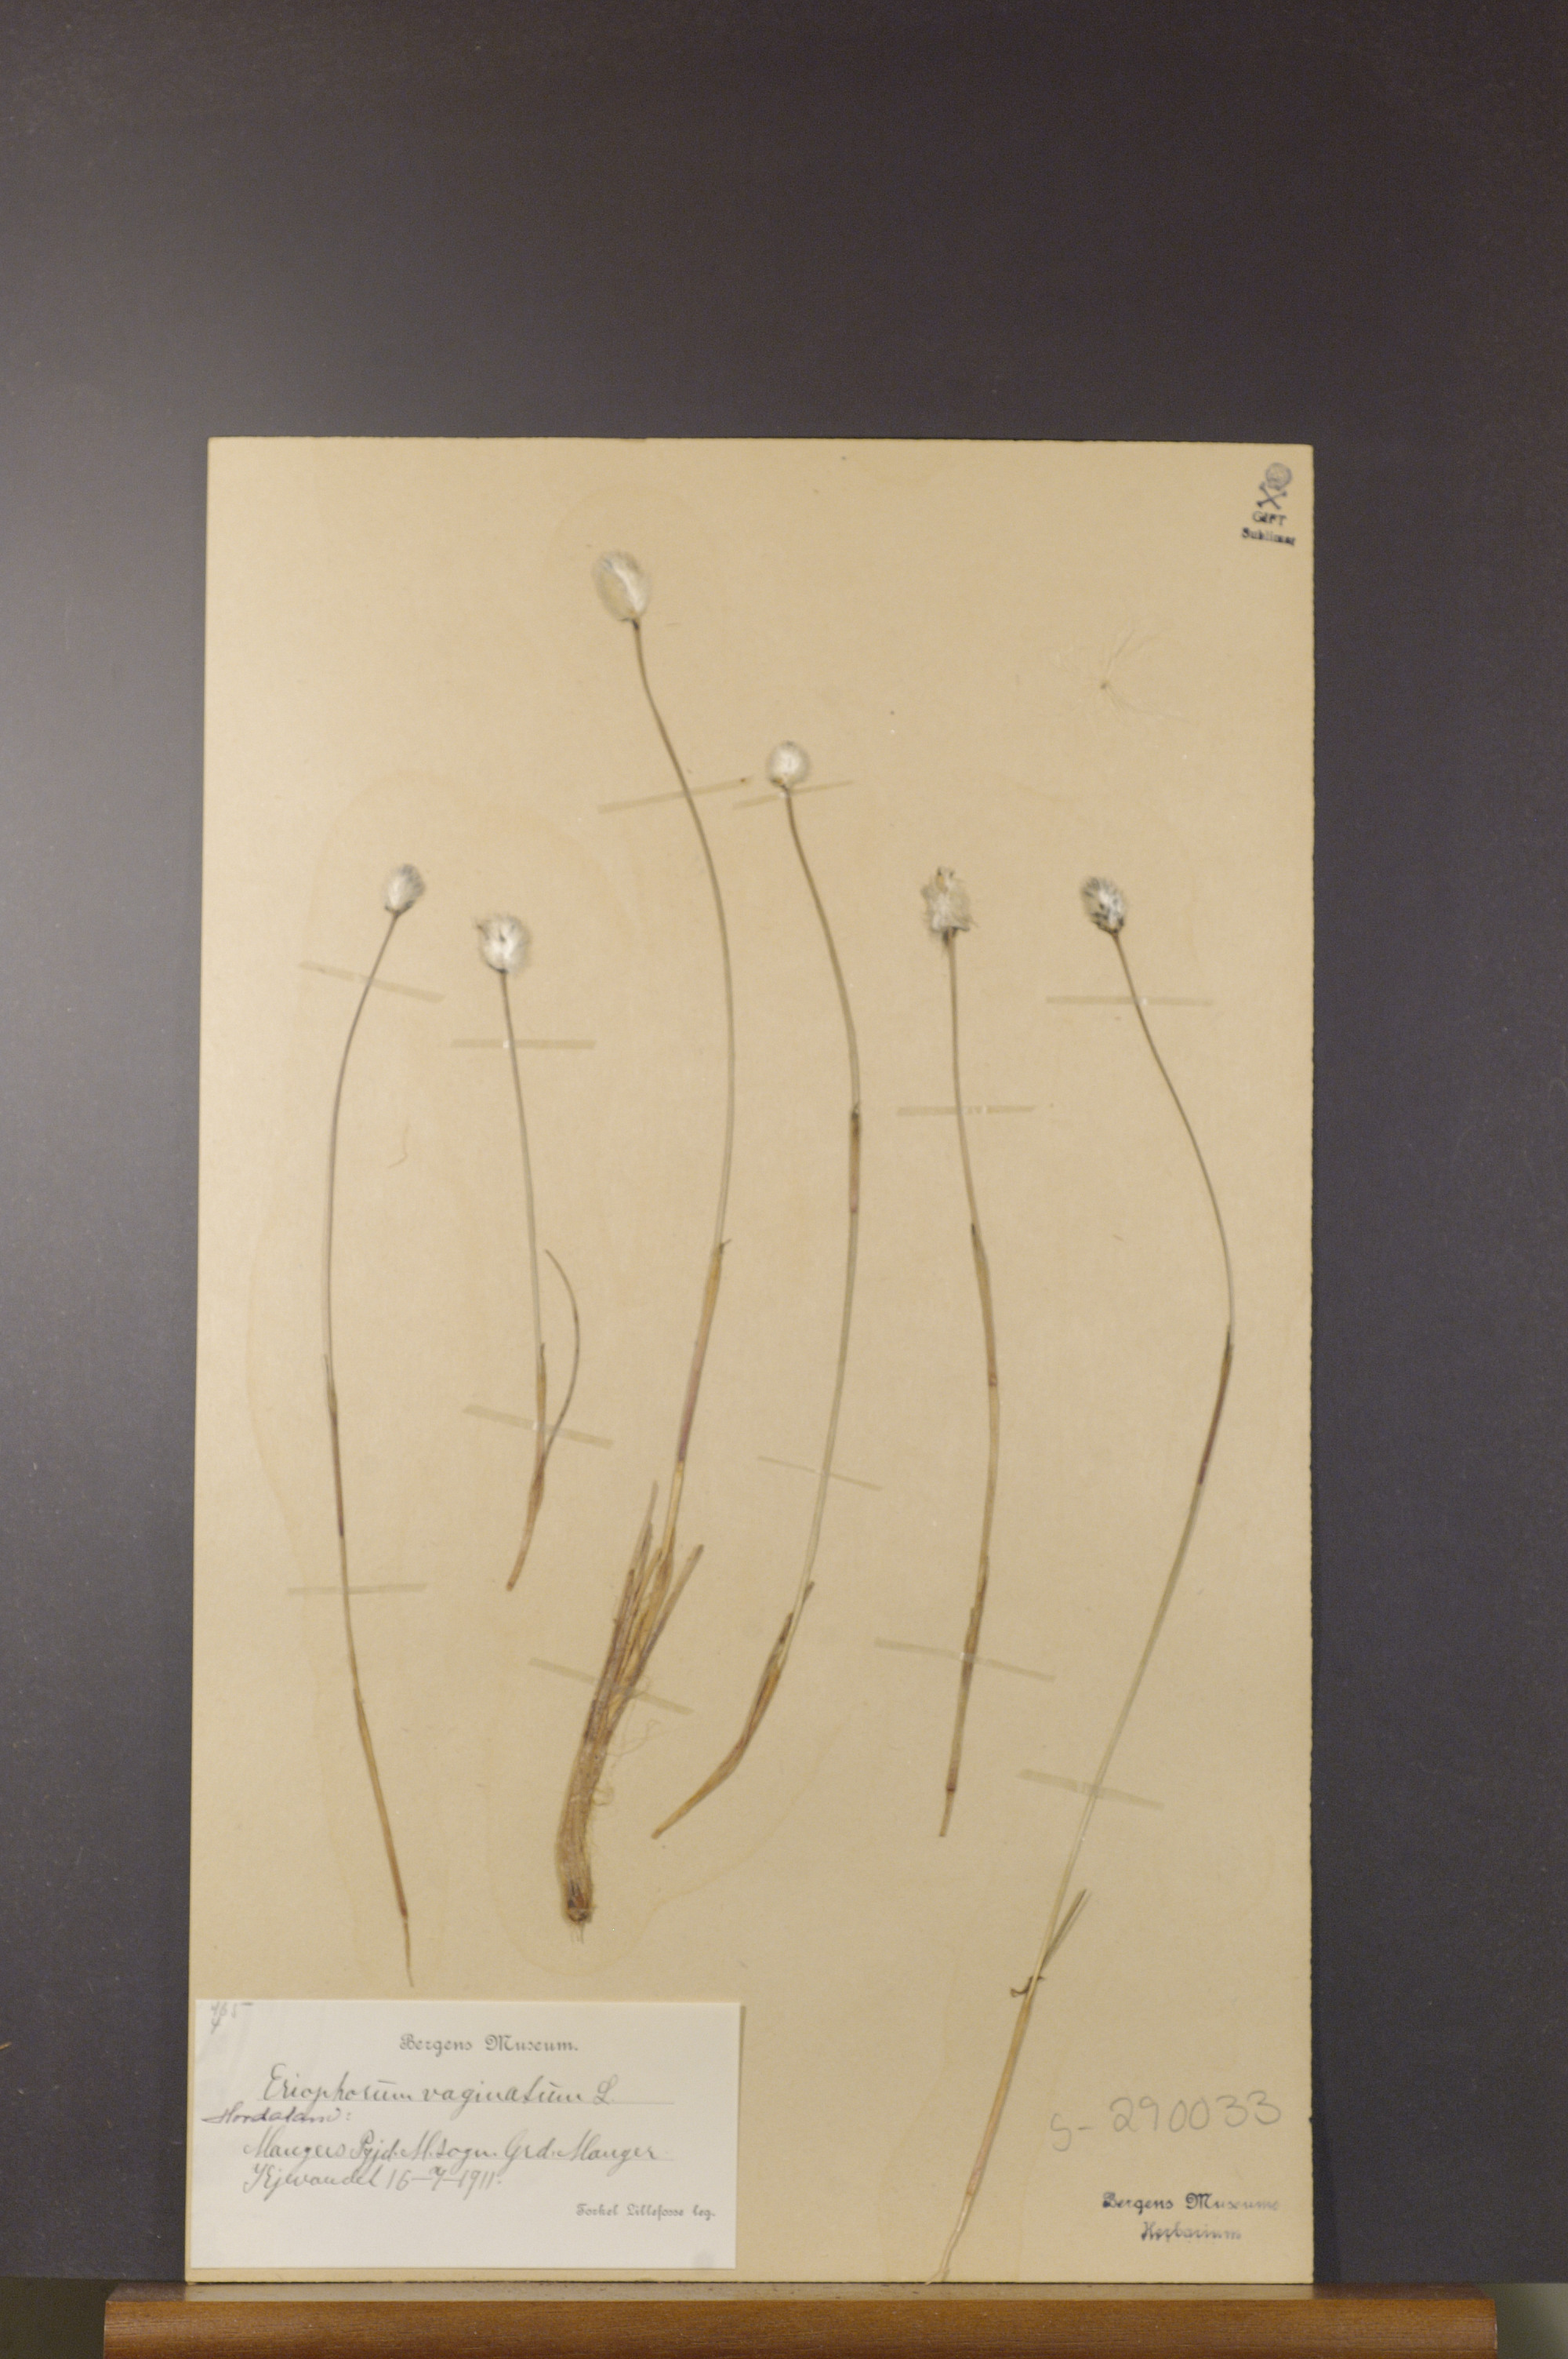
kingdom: Plantae
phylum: Tracheophyta
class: Liliopsida
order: Poales
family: Cyperaceae
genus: Eriophorum
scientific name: Eriophorum vaginatum
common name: Hare's-tail cottongrass
